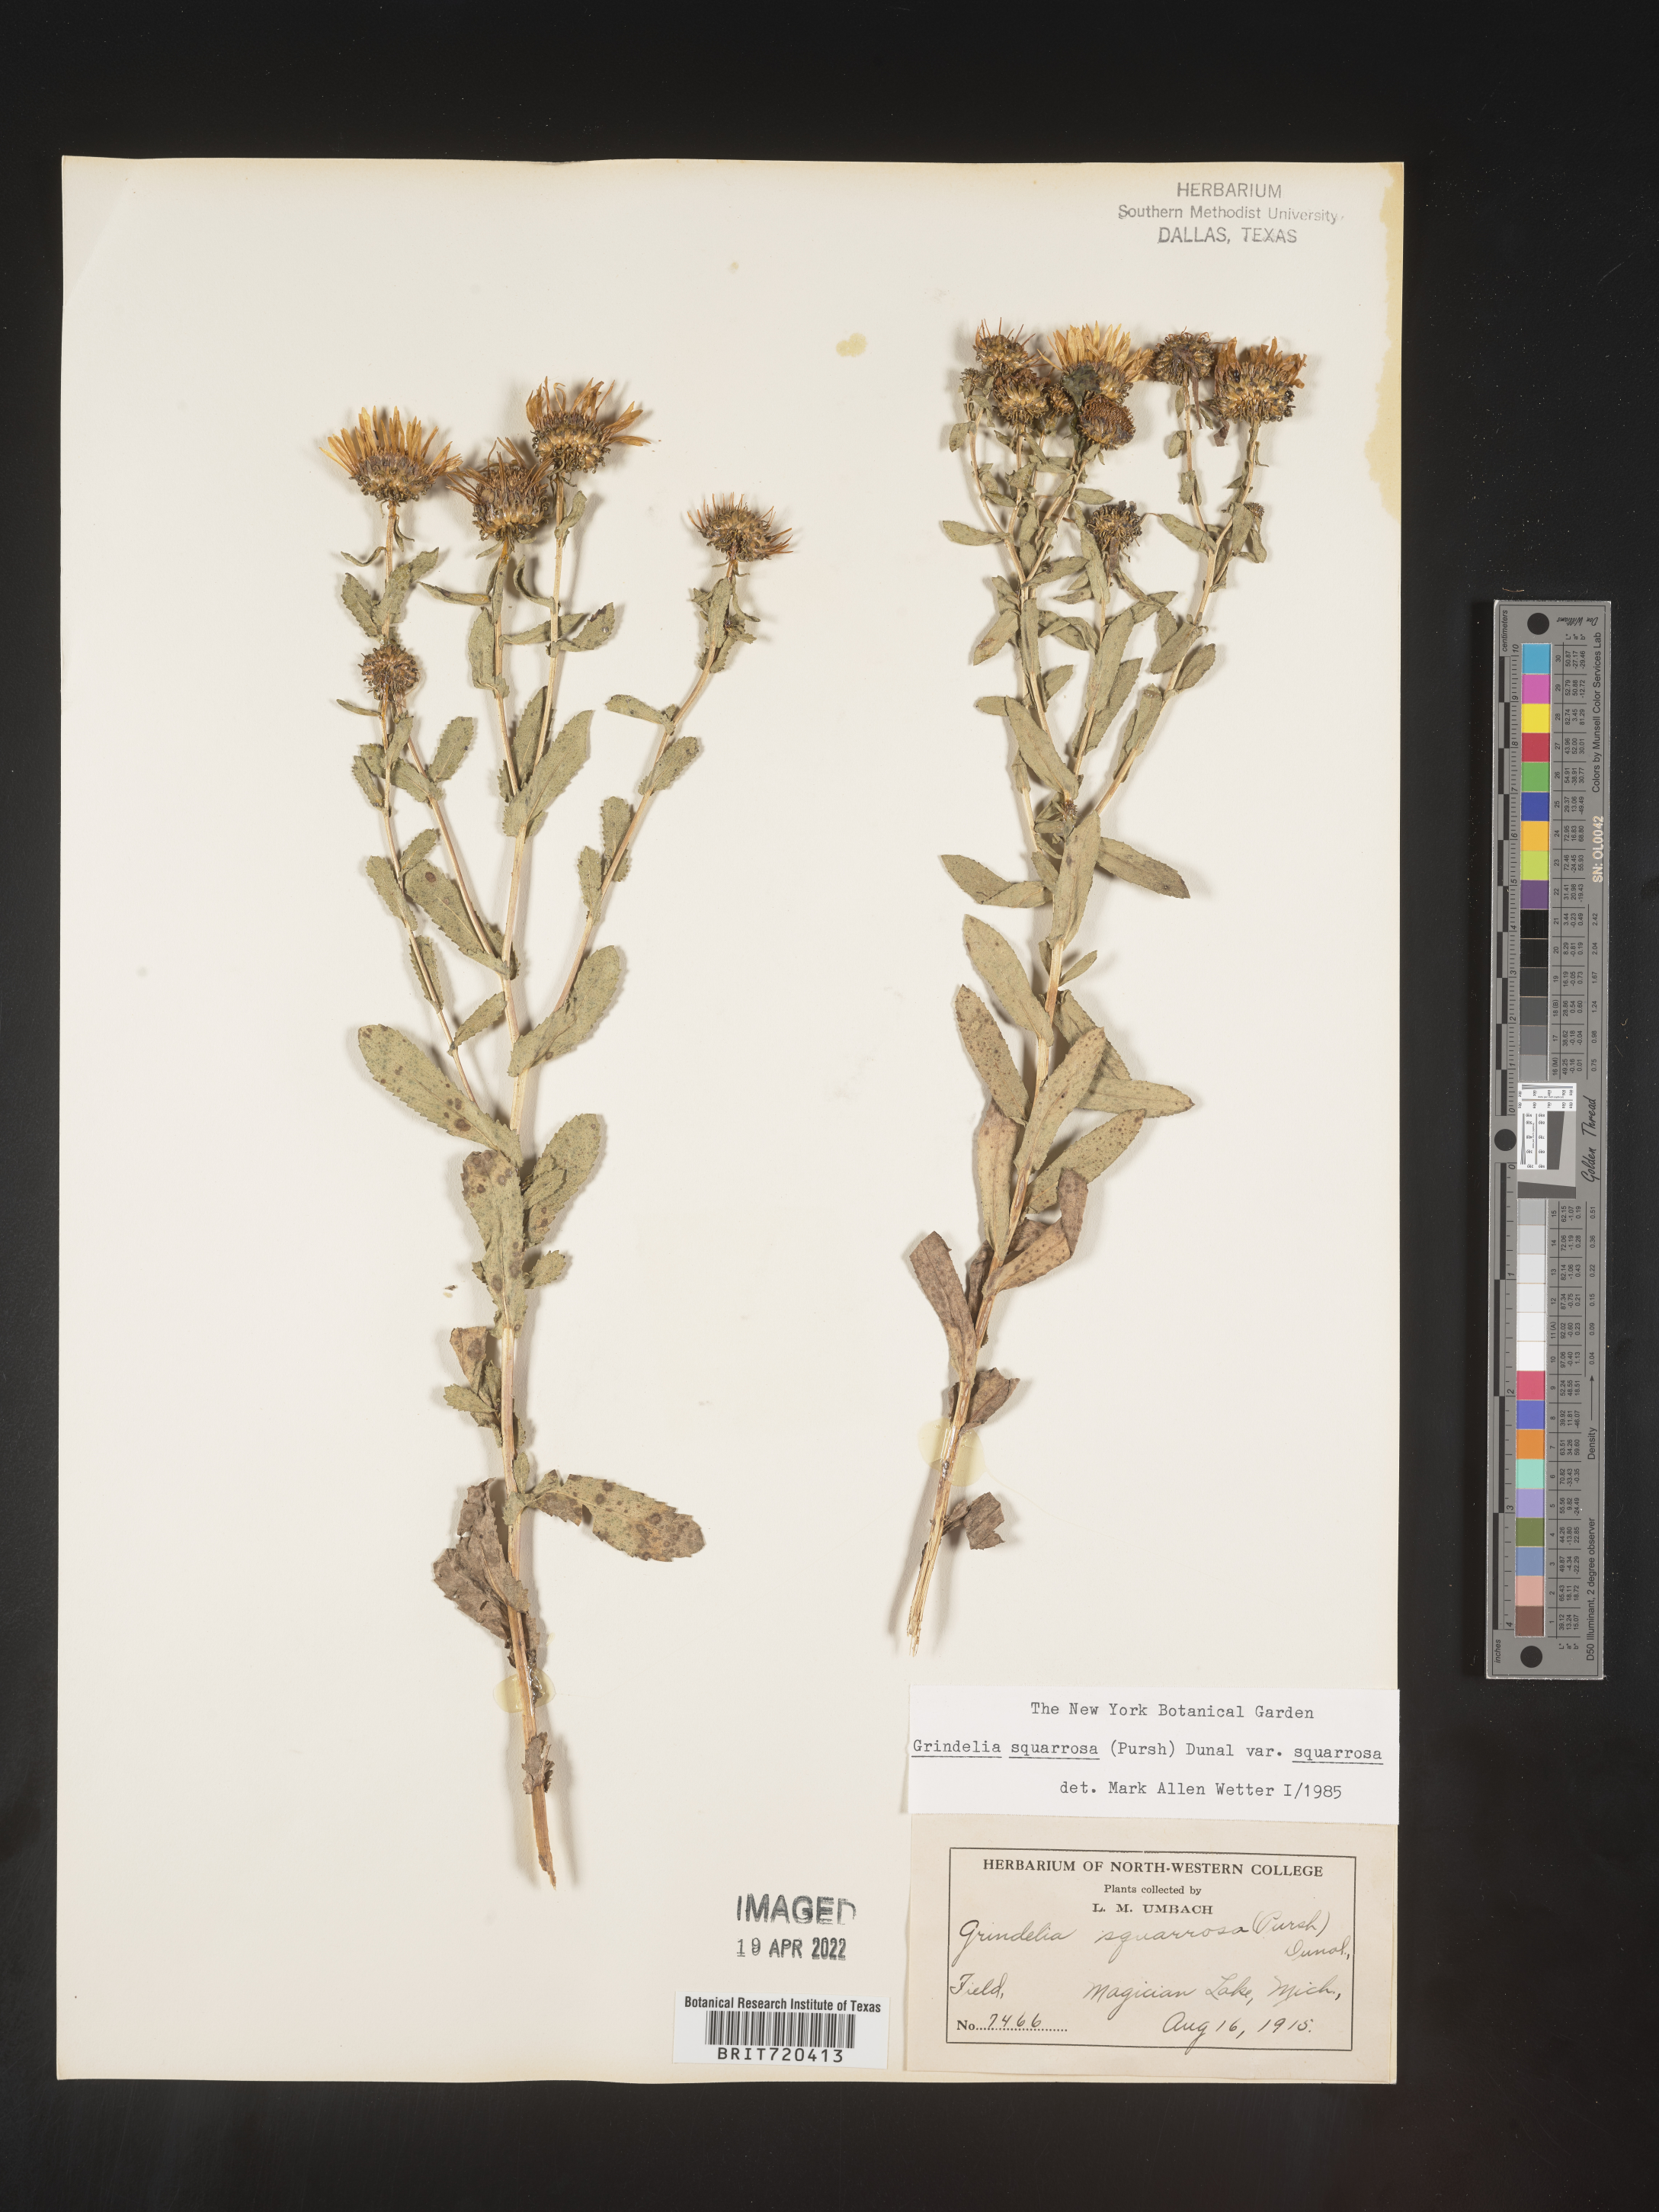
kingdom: Plantae
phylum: Tracheophyta
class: Magnoliopsida
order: Asterales
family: Asteraceae
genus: Grindelia
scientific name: Grindelia squarrosa
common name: Curly-cup gumweed
